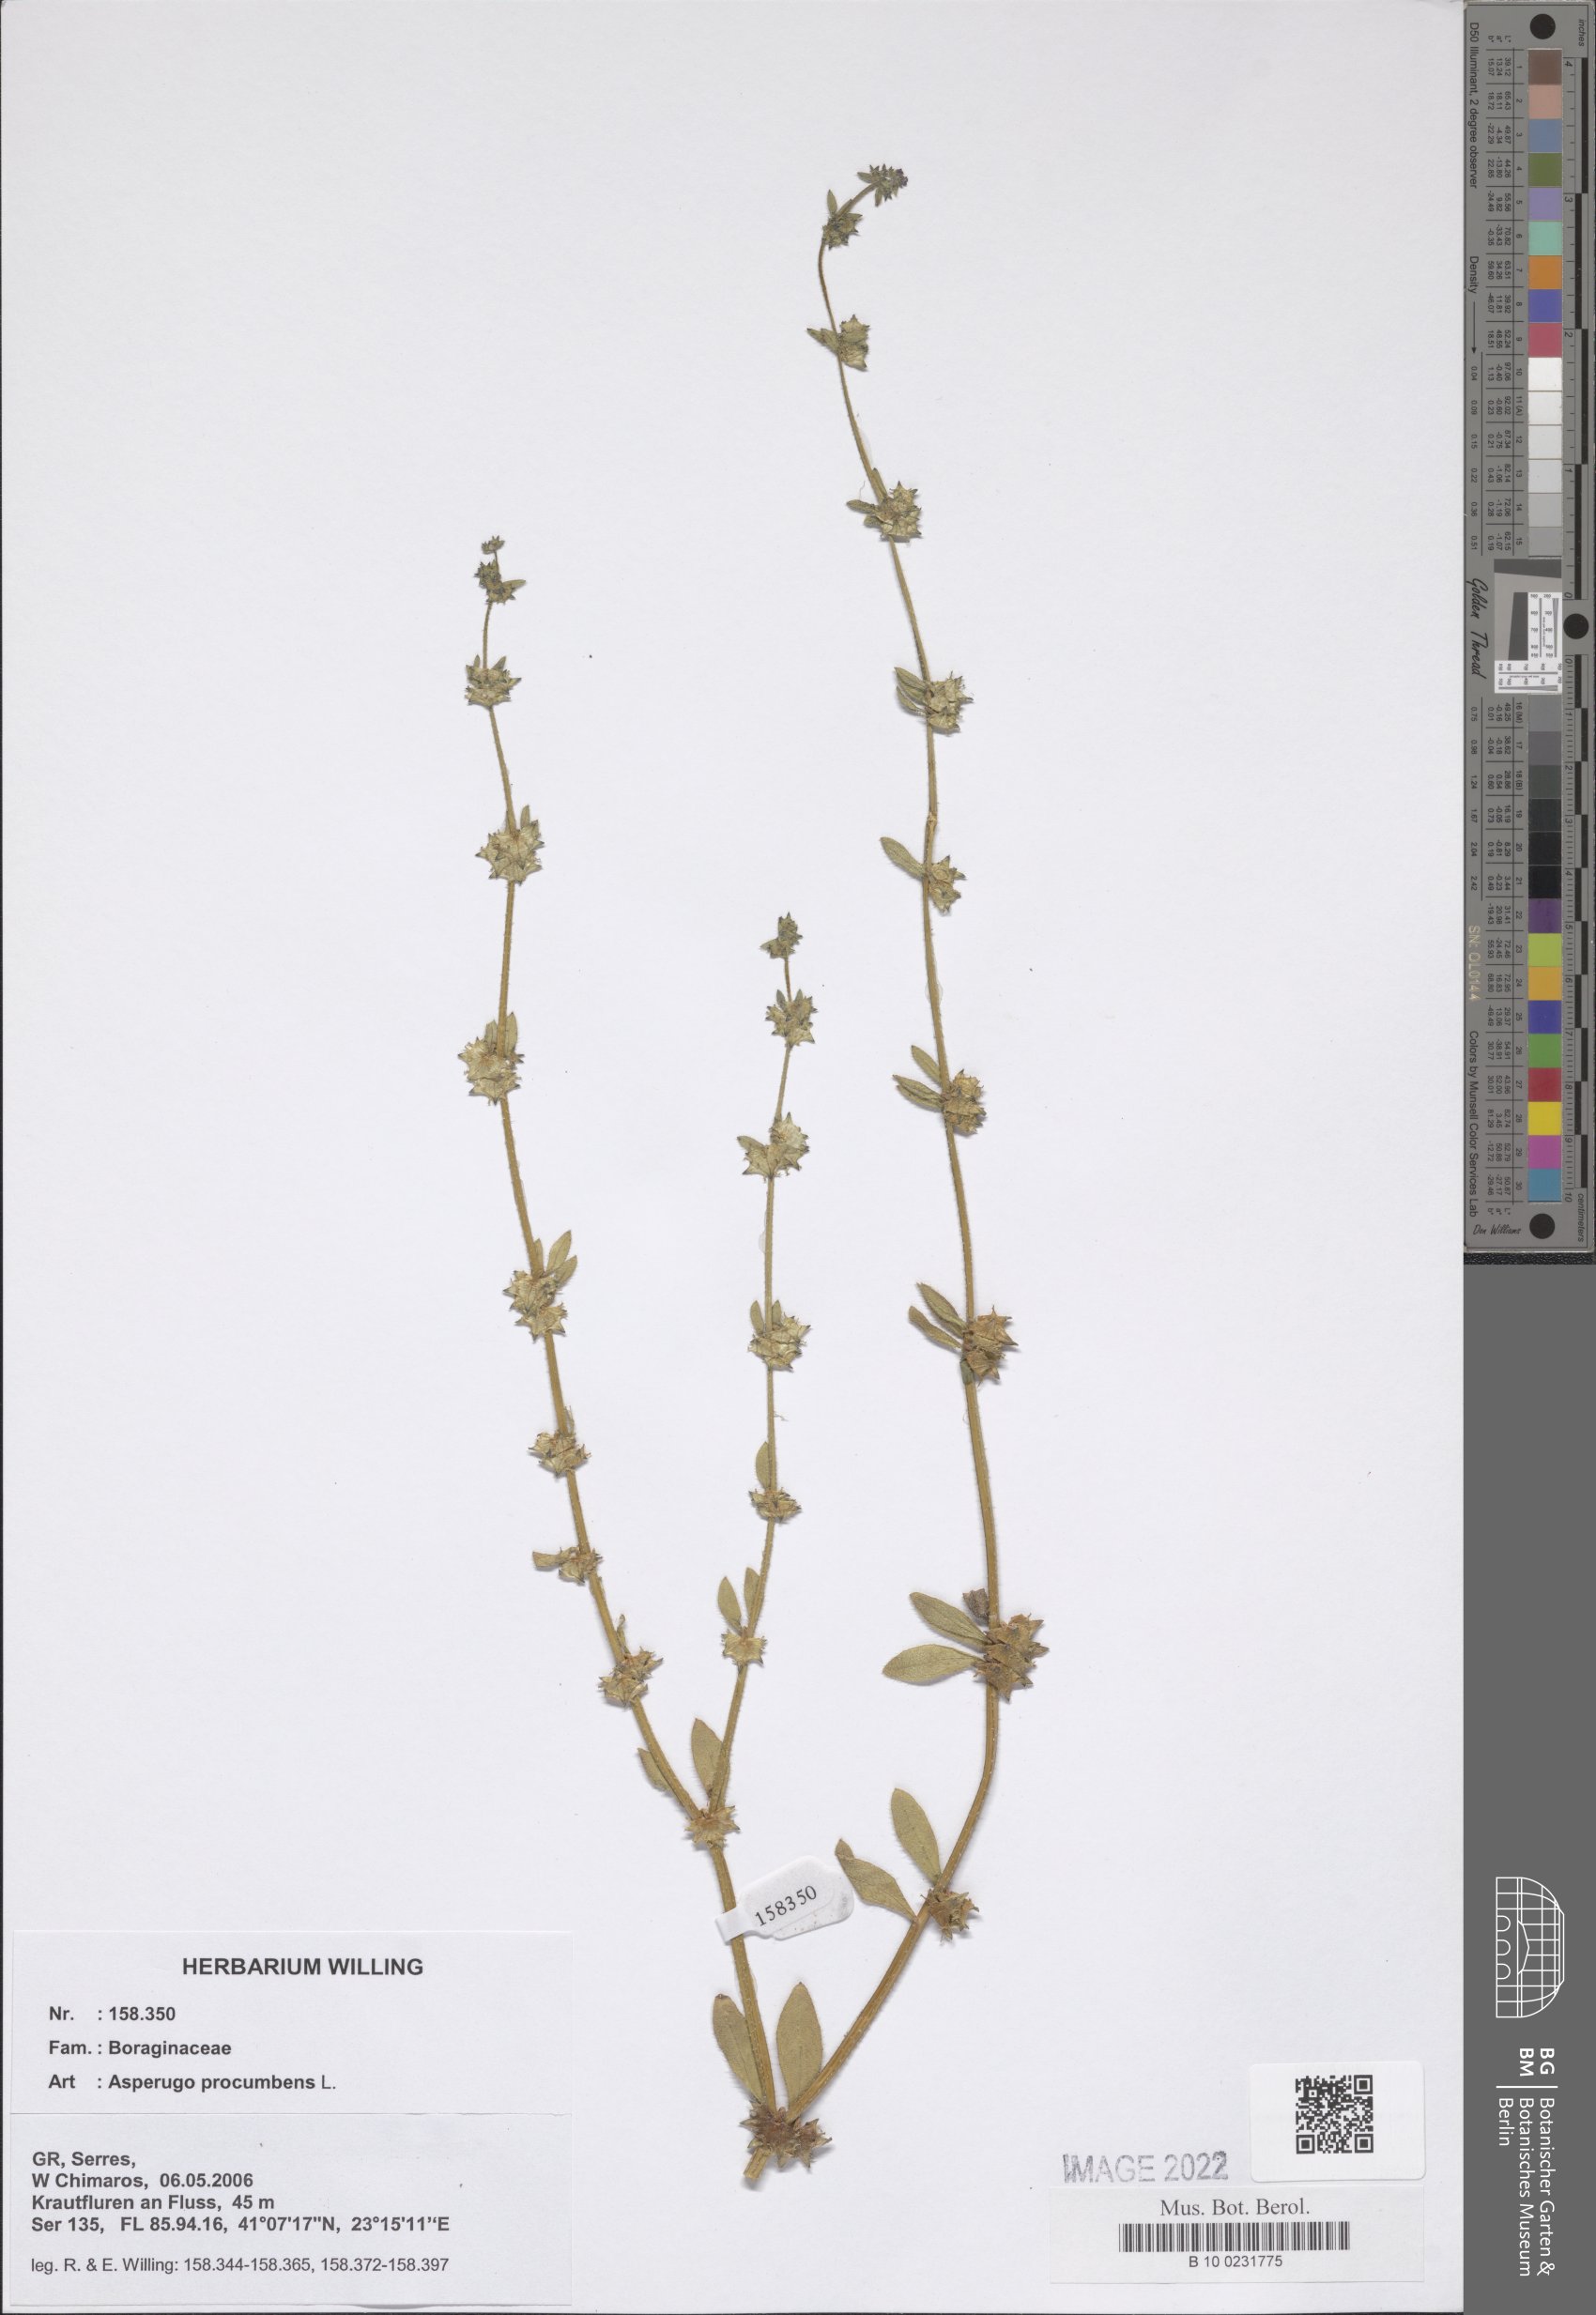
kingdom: Plantae
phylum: Tracheophyta
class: Magnoliopsida
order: Boraginales
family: Boraginaceae
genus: Asperugo
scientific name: Asperugo procumbens
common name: Madwort
